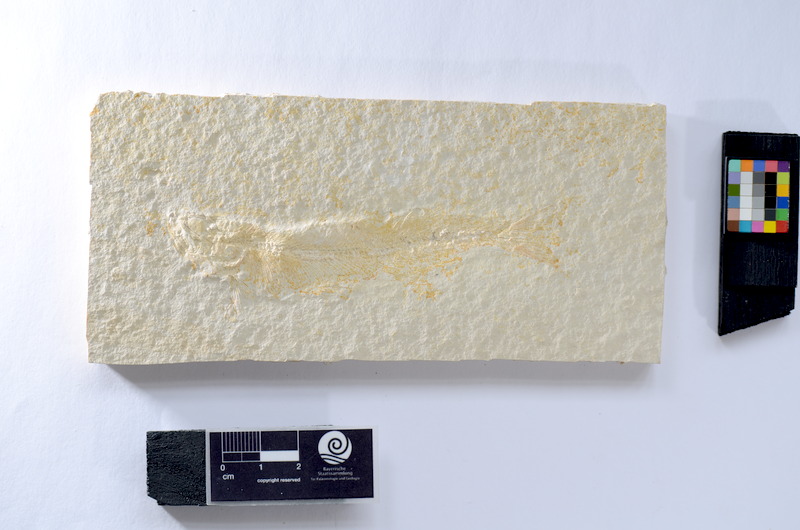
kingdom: Animalia
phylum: Chordata
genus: Thrissops
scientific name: Thrissops
